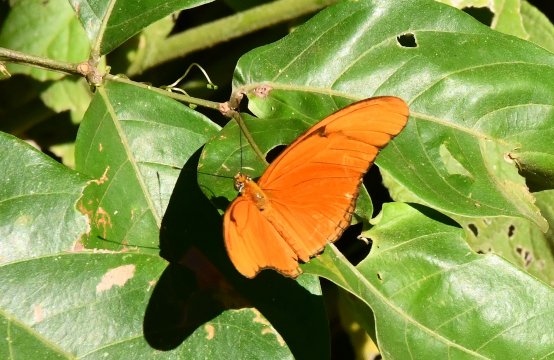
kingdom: Animalia
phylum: Arthropoda
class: Insecta
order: Lepidoptera
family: Nymphalidae
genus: Dryas
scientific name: Dryas iulia
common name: Julia
